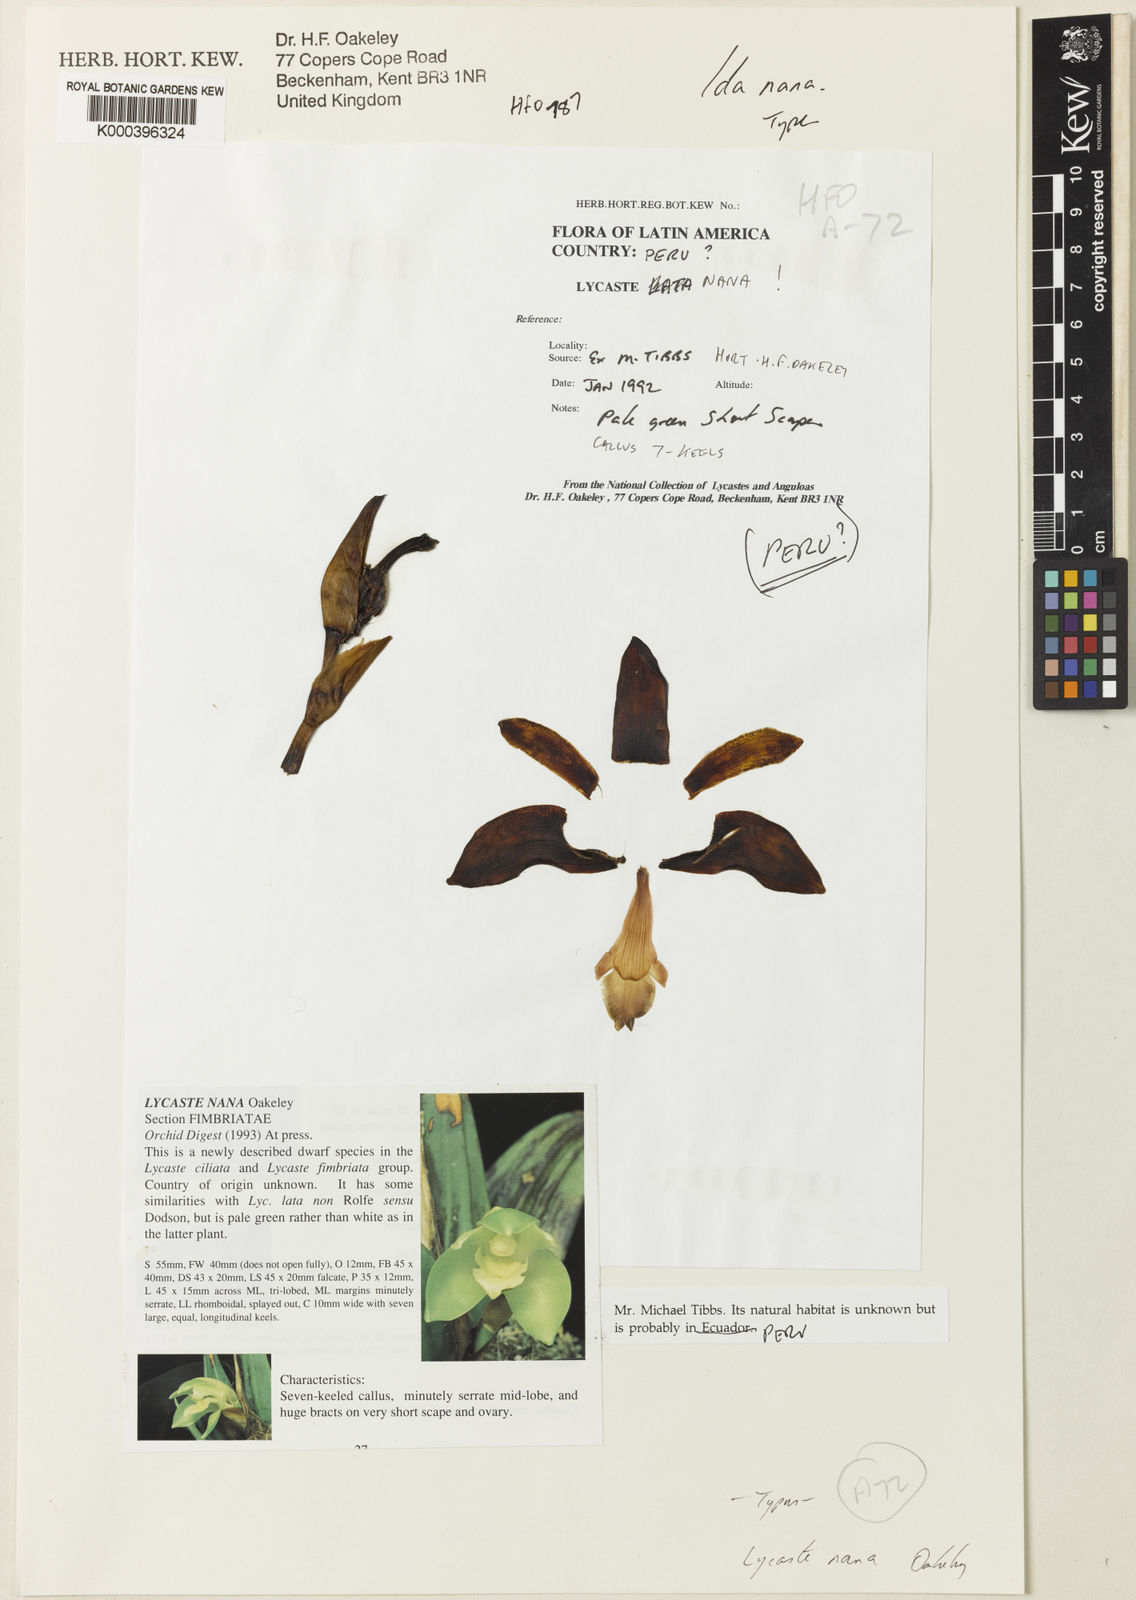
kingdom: Plantae
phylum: Tracheophyta
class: Liliopsida
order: Asparagales
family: Orchidaceae
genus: Ida
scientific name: Ida nana
